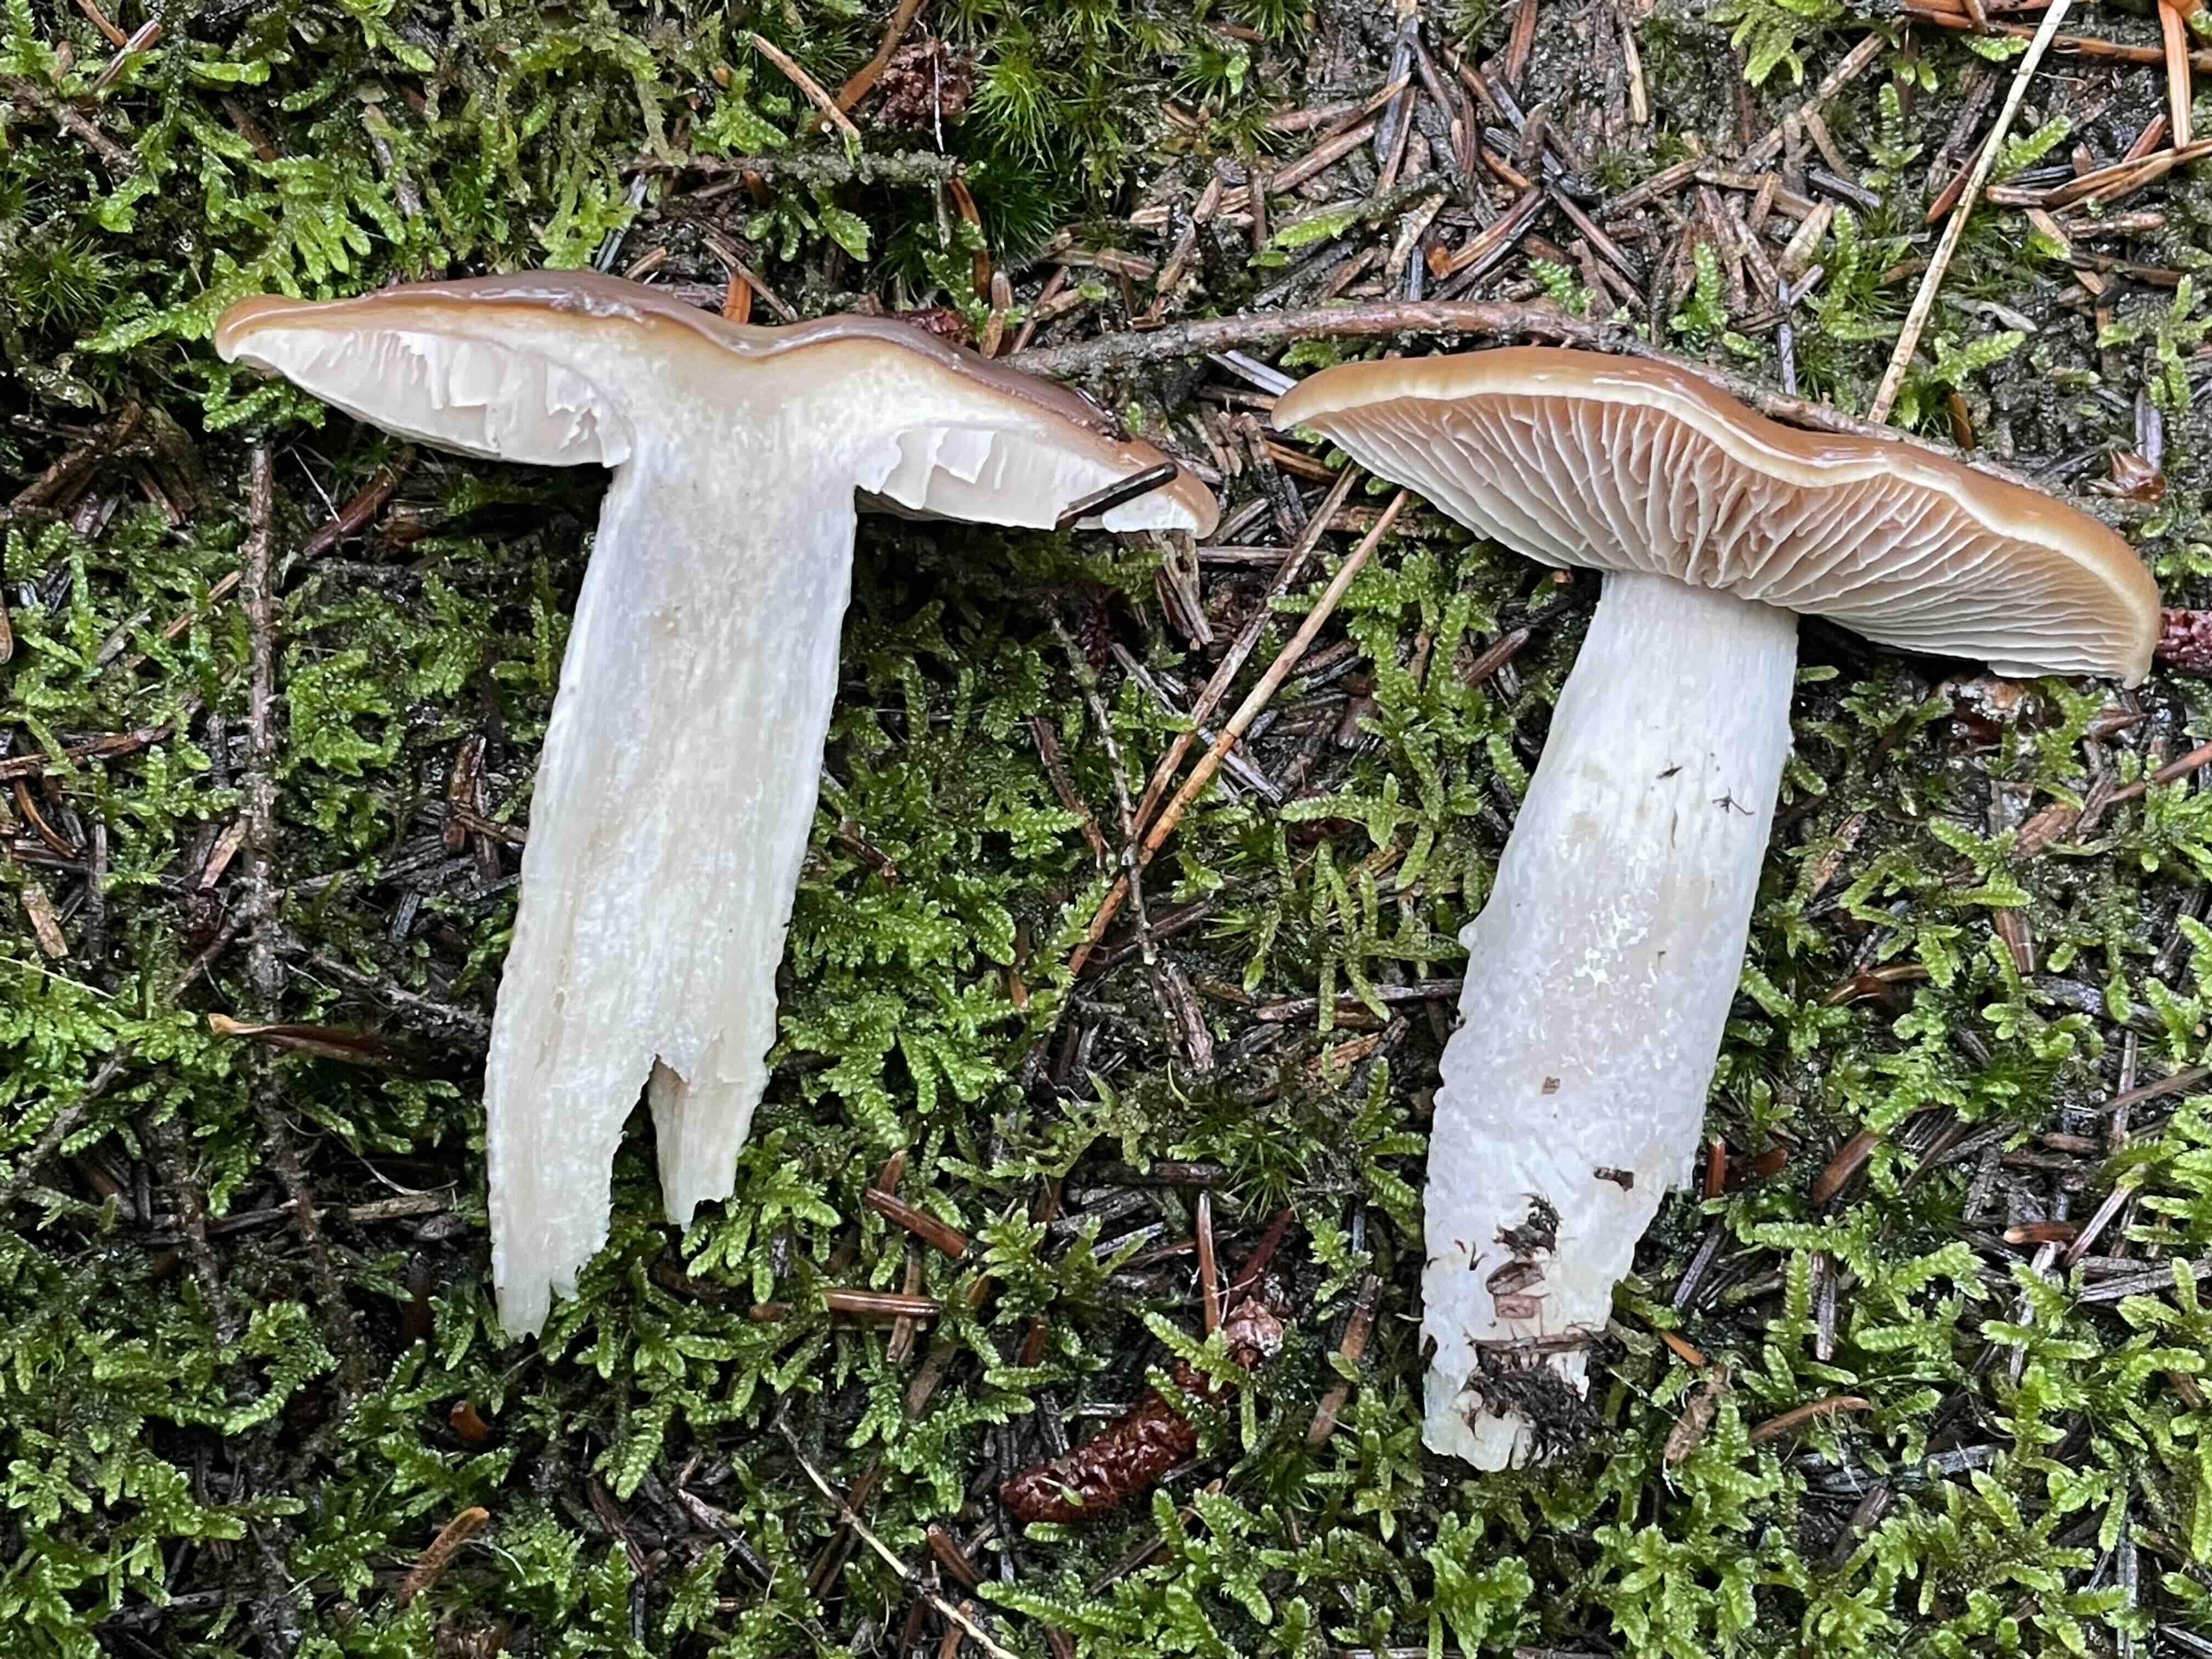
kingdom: Fungi
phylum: Basidiomycota
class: Agaricomycetes
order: Agaricales
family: Cortinariaceae
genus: Cortinarius
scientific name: Cortinarius stillatitius
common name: honningduftende slørhat
